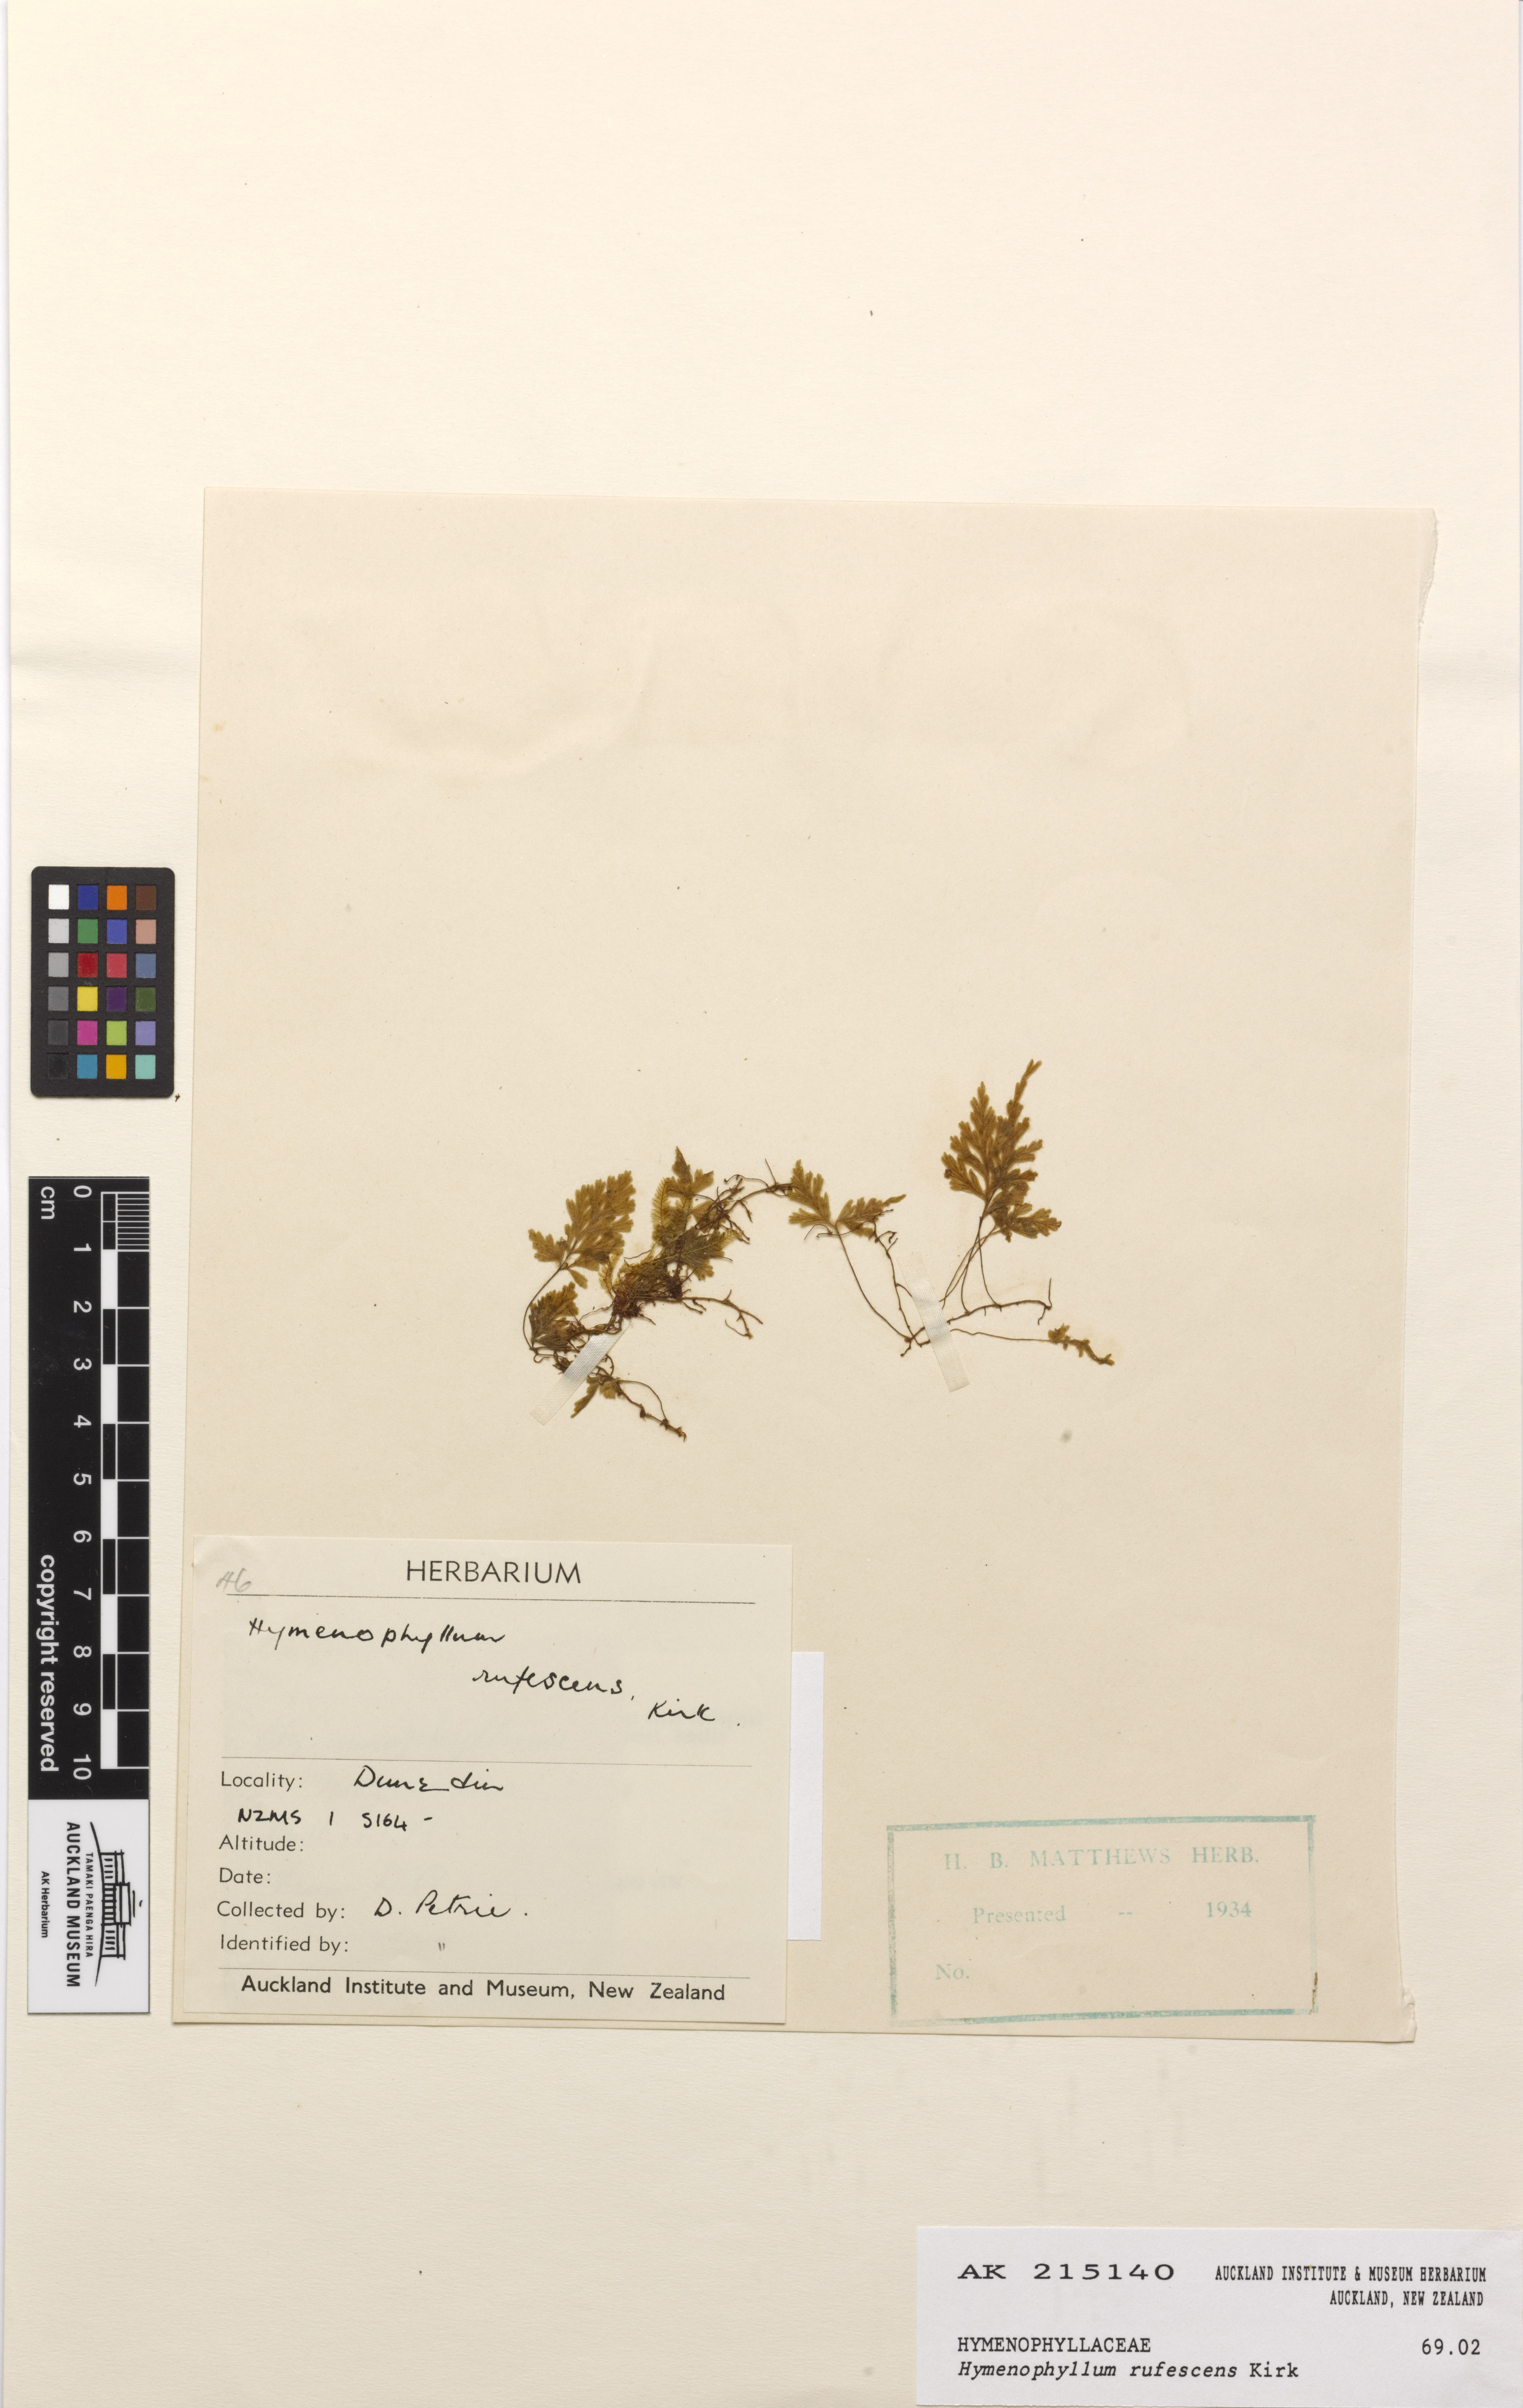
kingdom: Plantae
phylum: Tracheophyta
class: Polypodiopsida
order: Hymenophyllales
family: Hymenophyllaceae
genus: Hymenophyllum
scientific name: Hymenophyllum rufescens
